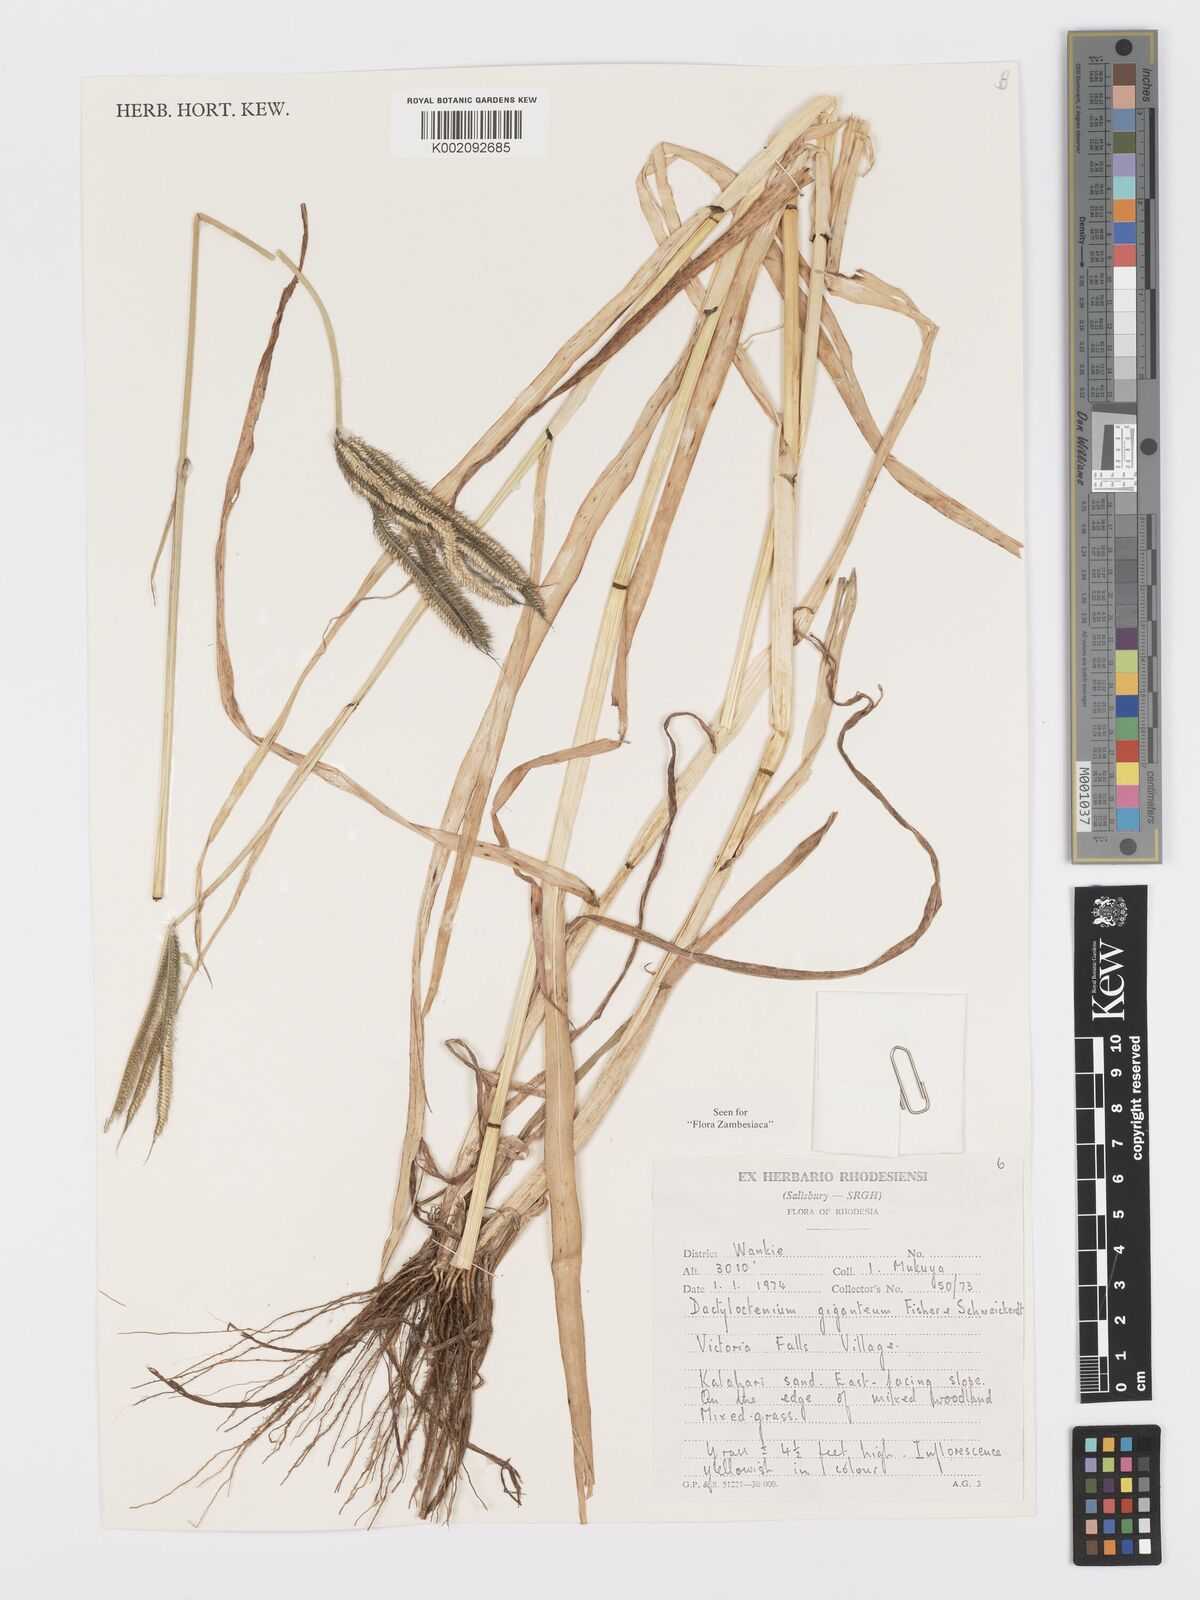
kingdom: Plantae
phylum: Tracheophyta
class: Liliopsida
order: Poales
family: Poaceae
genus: Dactyloctenium
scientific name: Dactyloctenium giganteum
